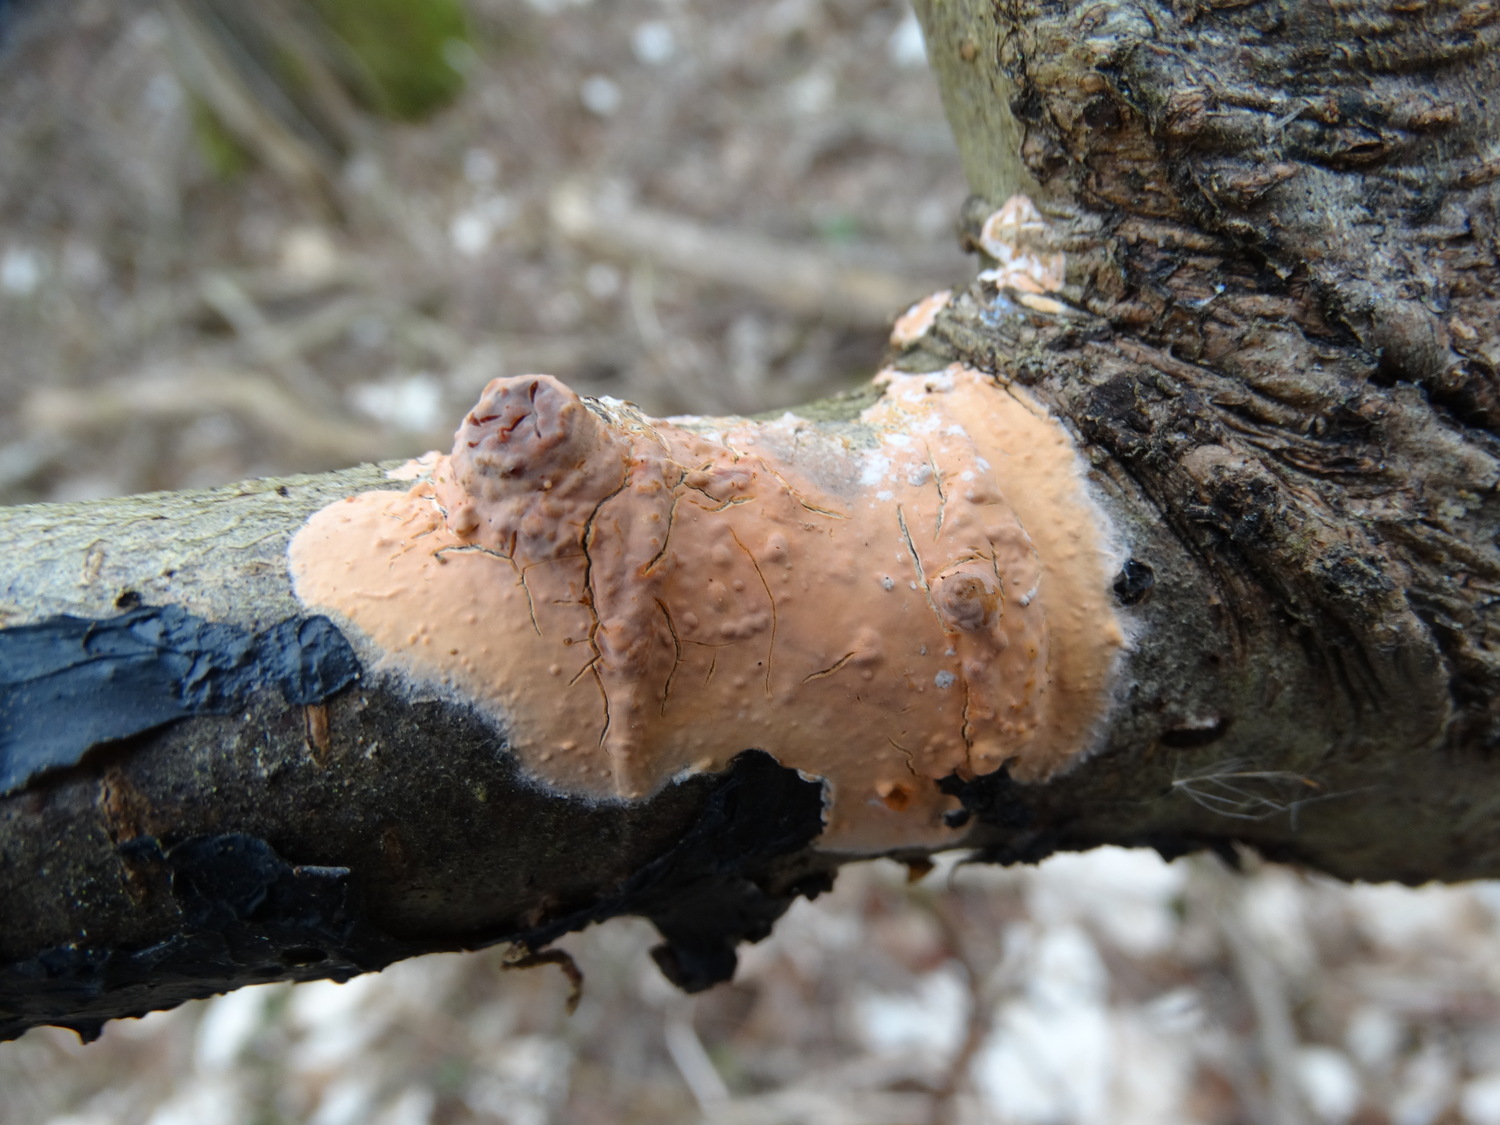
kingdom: Fungi
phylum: Basidiomycota
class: Agaricomycetes
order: Russulales
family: Peniophoraceae
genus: Peniophora
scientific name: Peniophora incarnata
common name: laksefarvet voksskind
